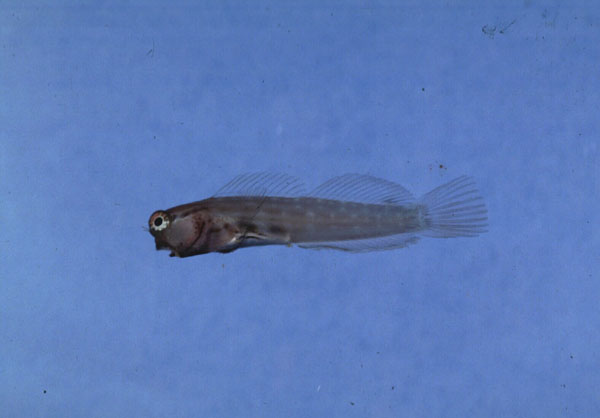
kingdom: Animalia
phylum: Chordata
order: Perciformes
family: Blenniidae
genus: Ecsenius
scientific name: Ecsenius nalolo
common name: Nalolo
